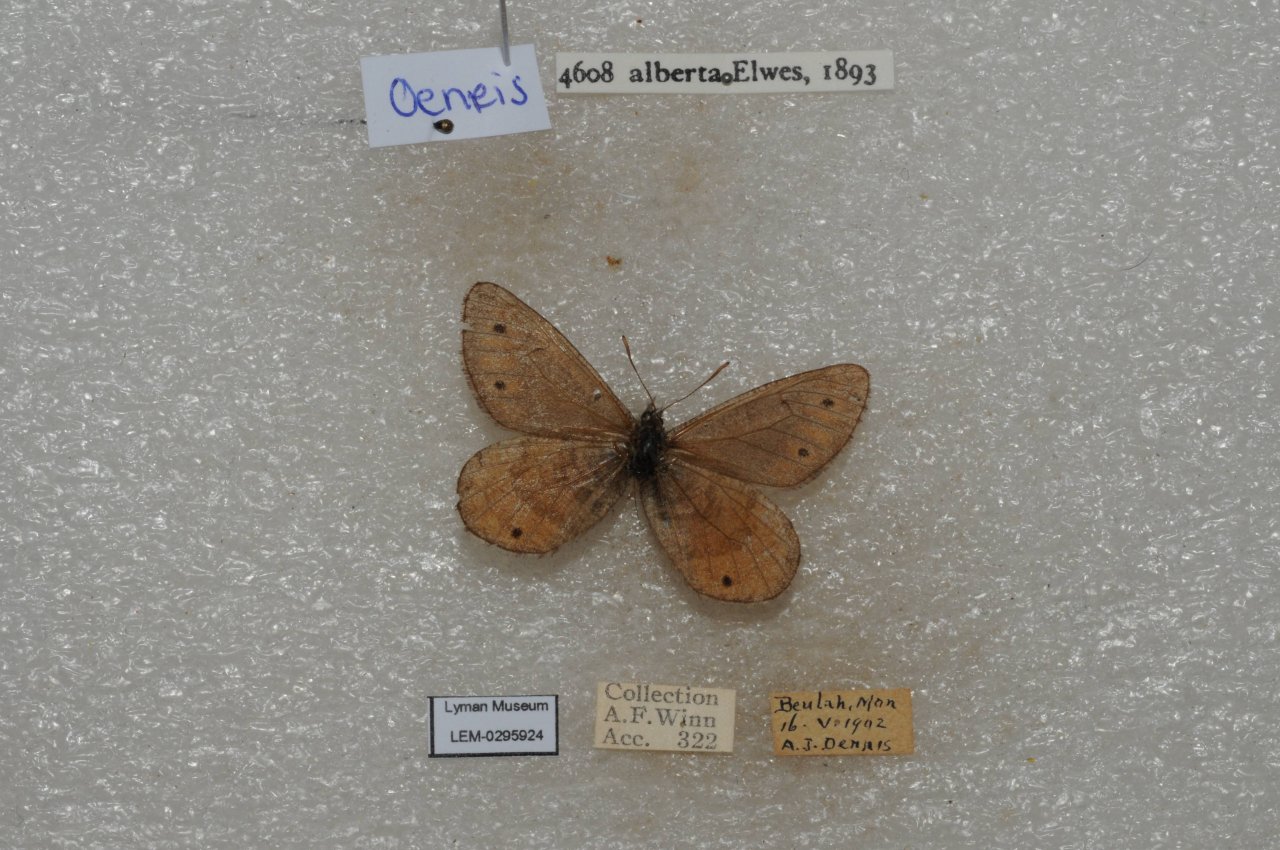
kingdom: Animalia
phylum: Arthropoda
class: Insecta
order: Lepidoptera
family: Nymphalidae
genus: Oeneis
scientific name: Oeneis alberta
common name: Alberta Arctic
